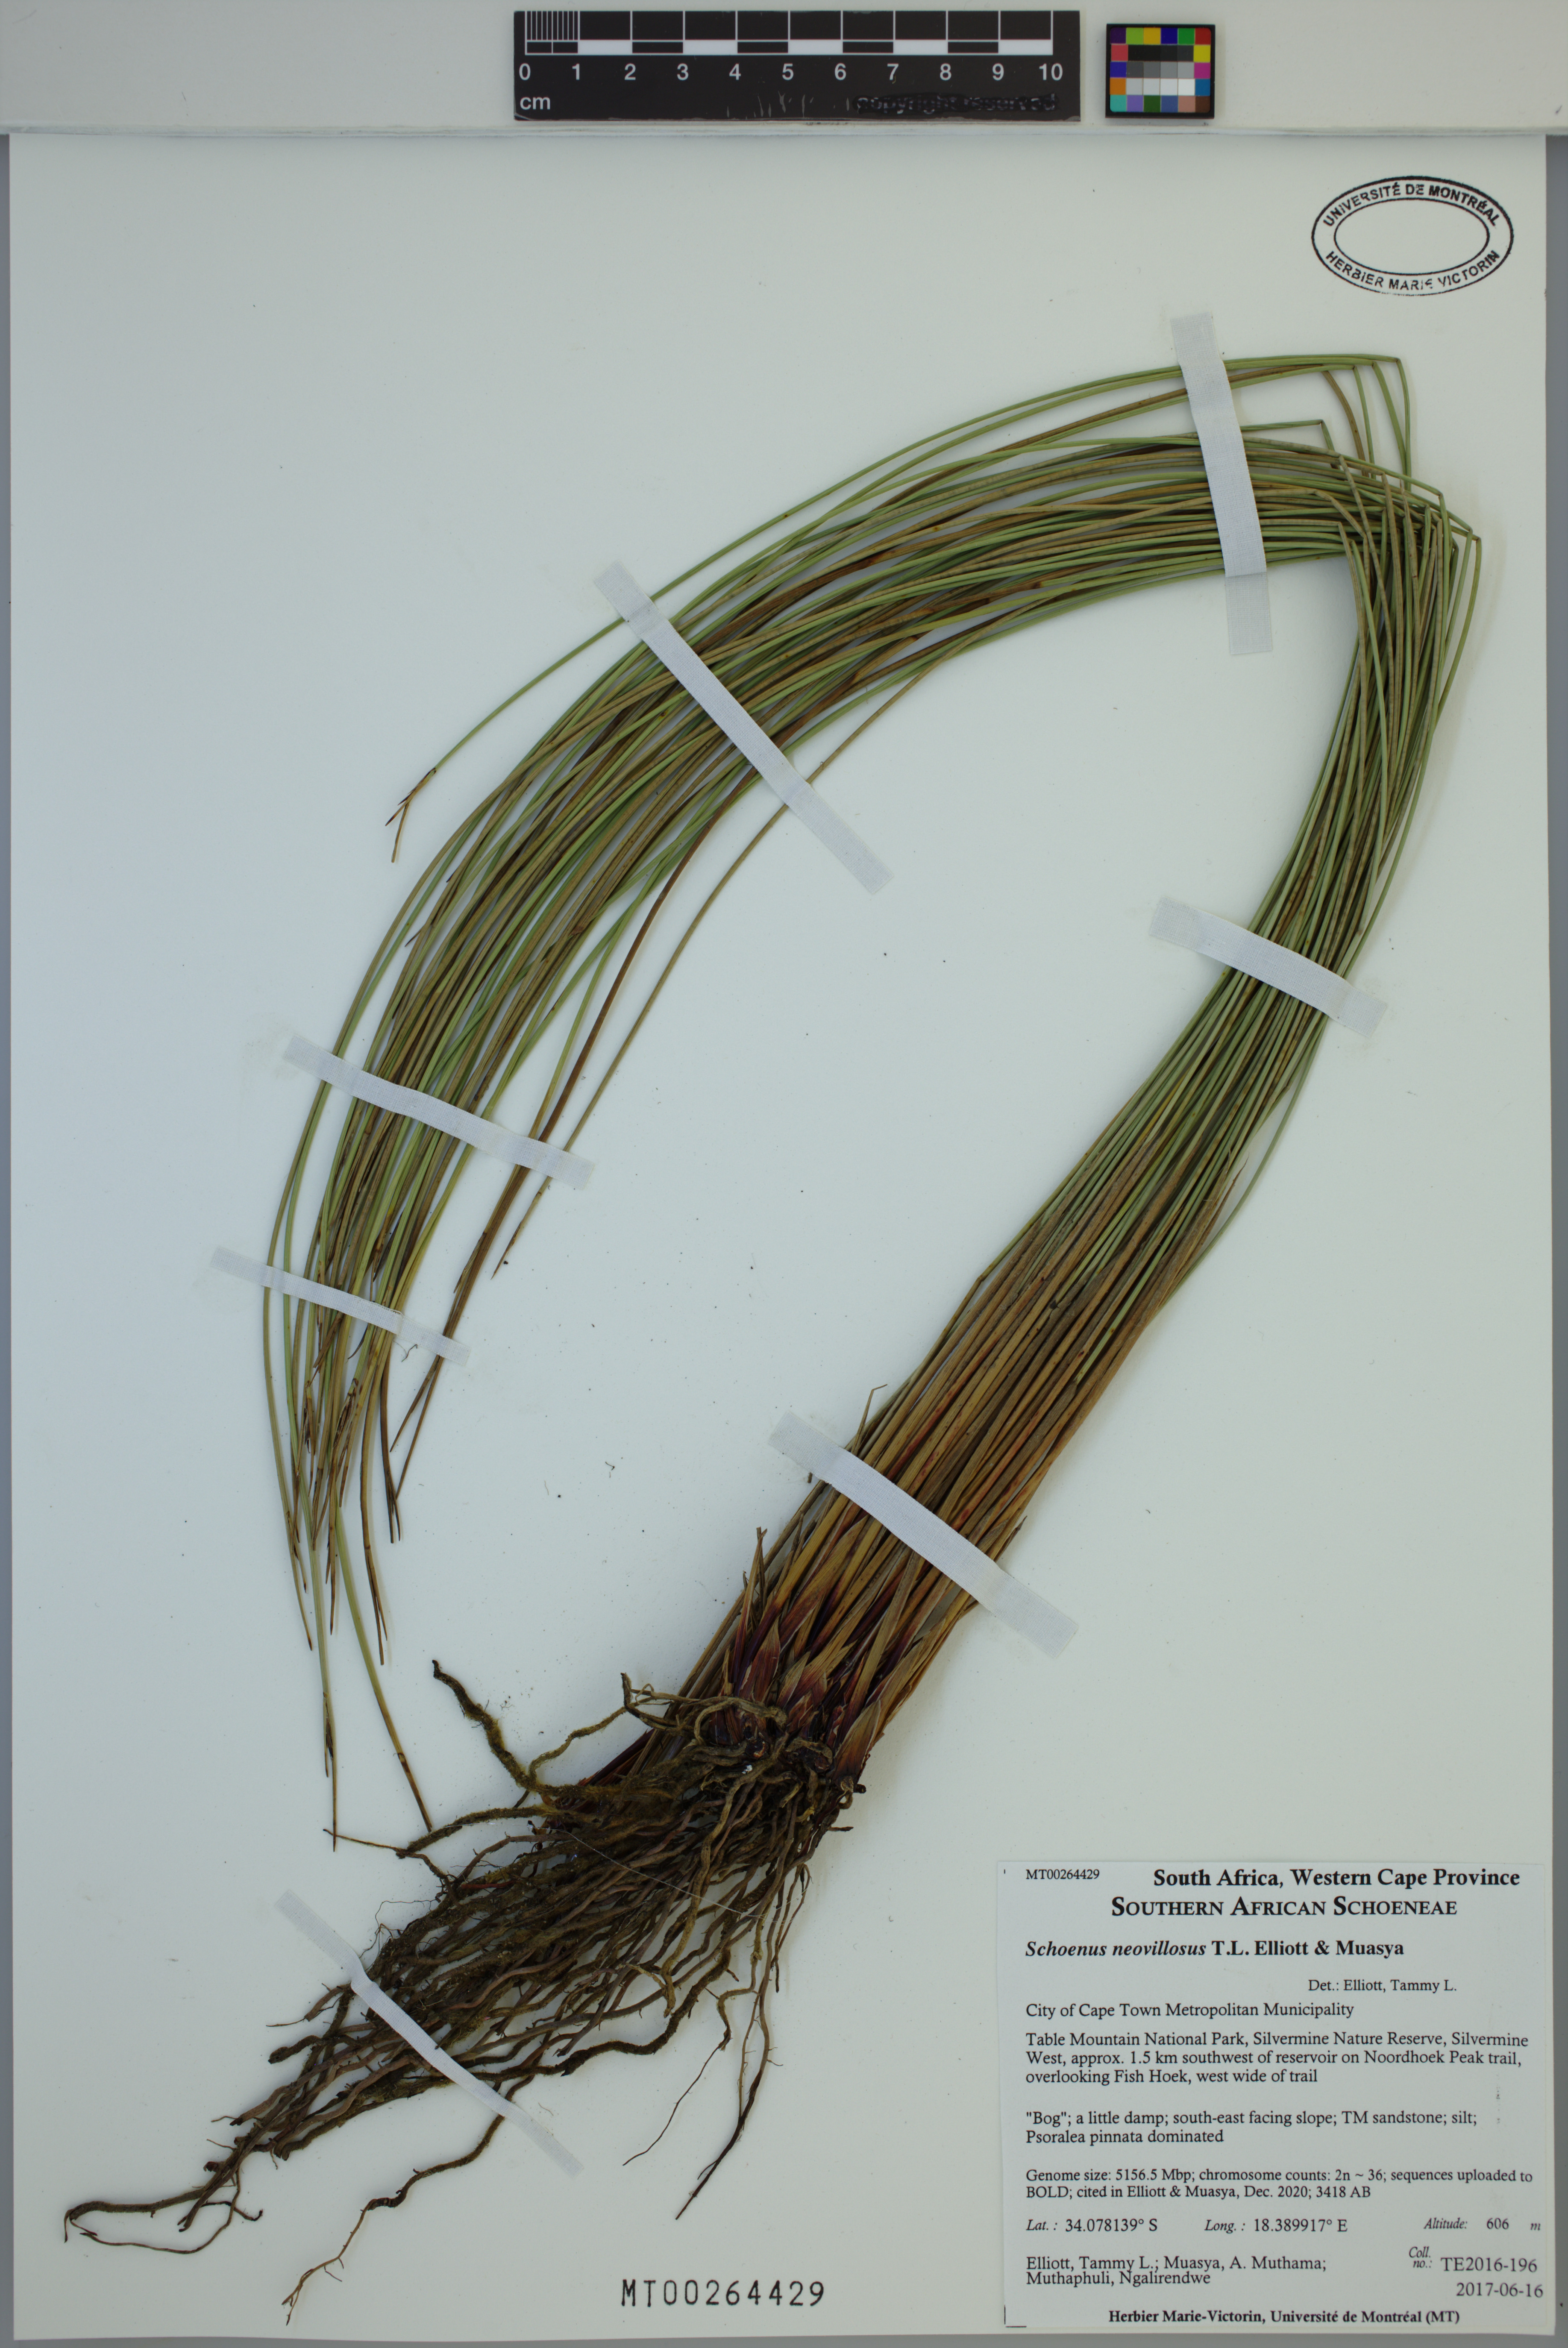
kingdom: Plantae
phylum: Tracheophyta
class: Liliopsida
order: Poales
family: Cyperaceae
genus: Schoenus
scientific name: Schoenus neovillosus
